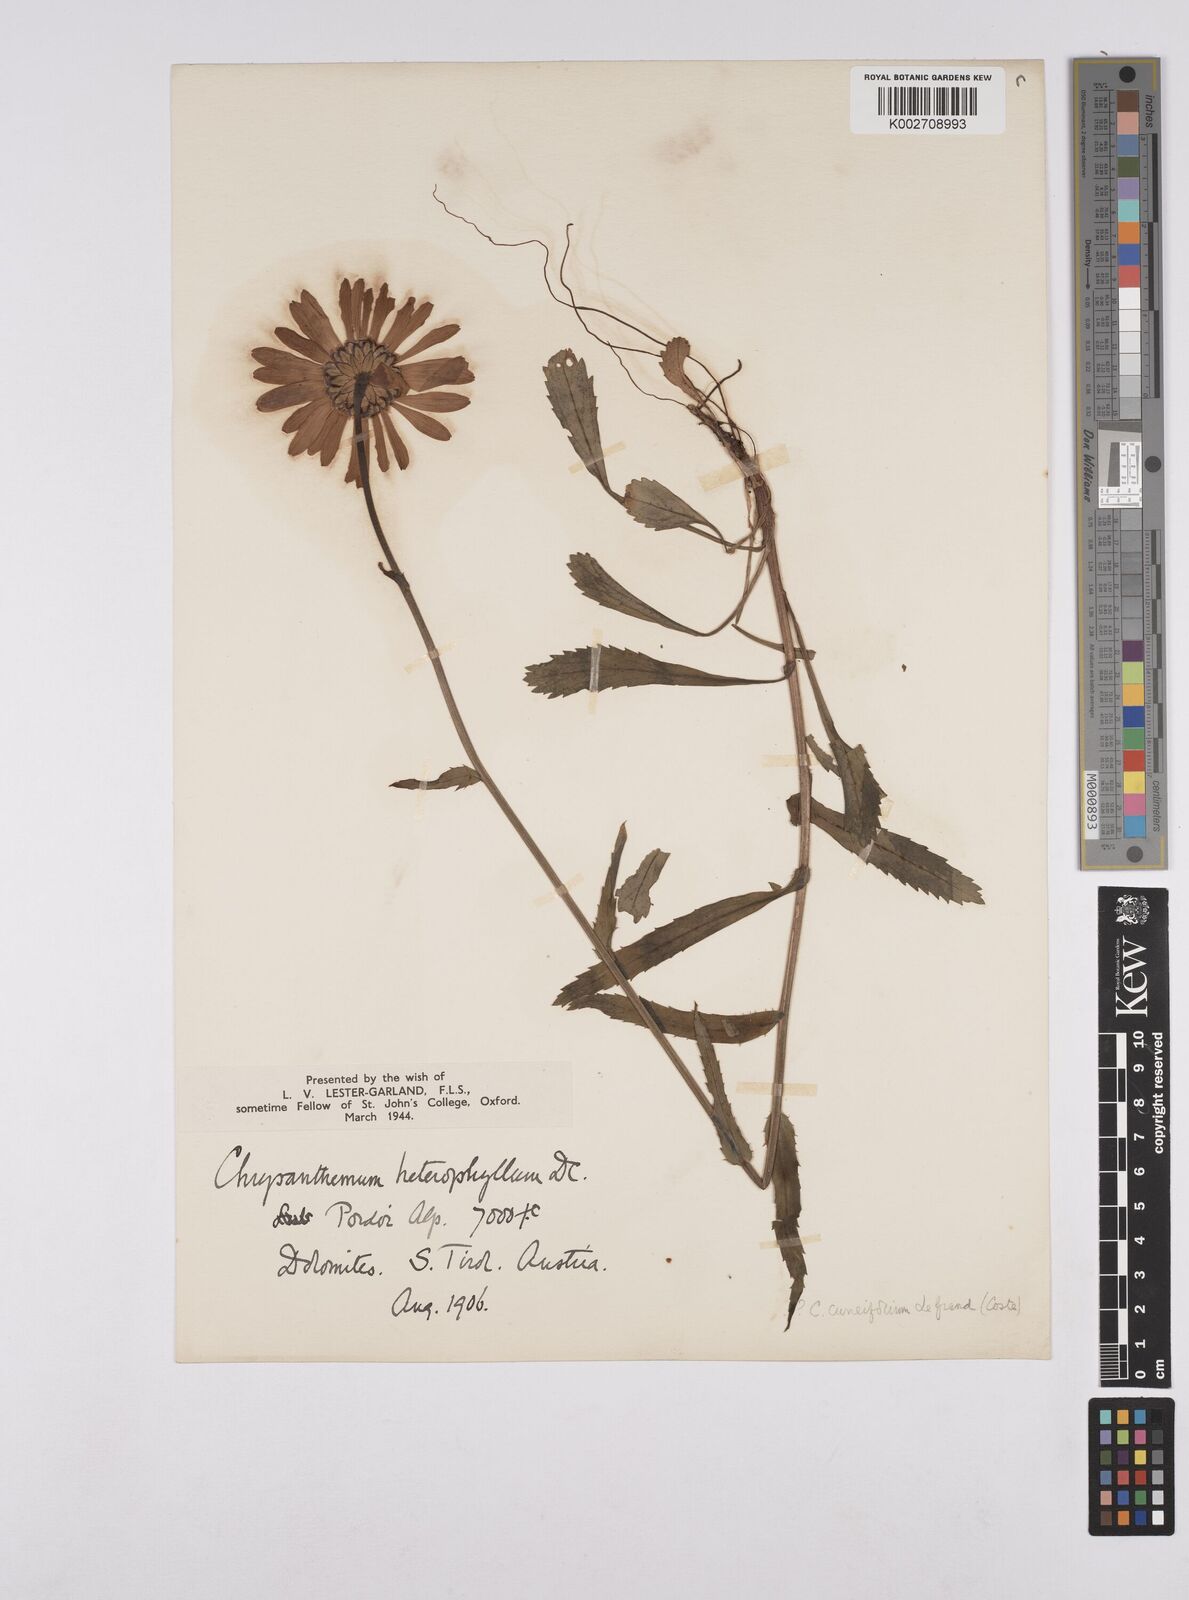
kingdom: Plantae
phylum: Tracheophyta
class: Magnoliopsida
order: Asterales
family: Asteraceae
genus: Leucanthemum
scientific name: Leucanthemum vulgare
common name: Oxeye daisy
